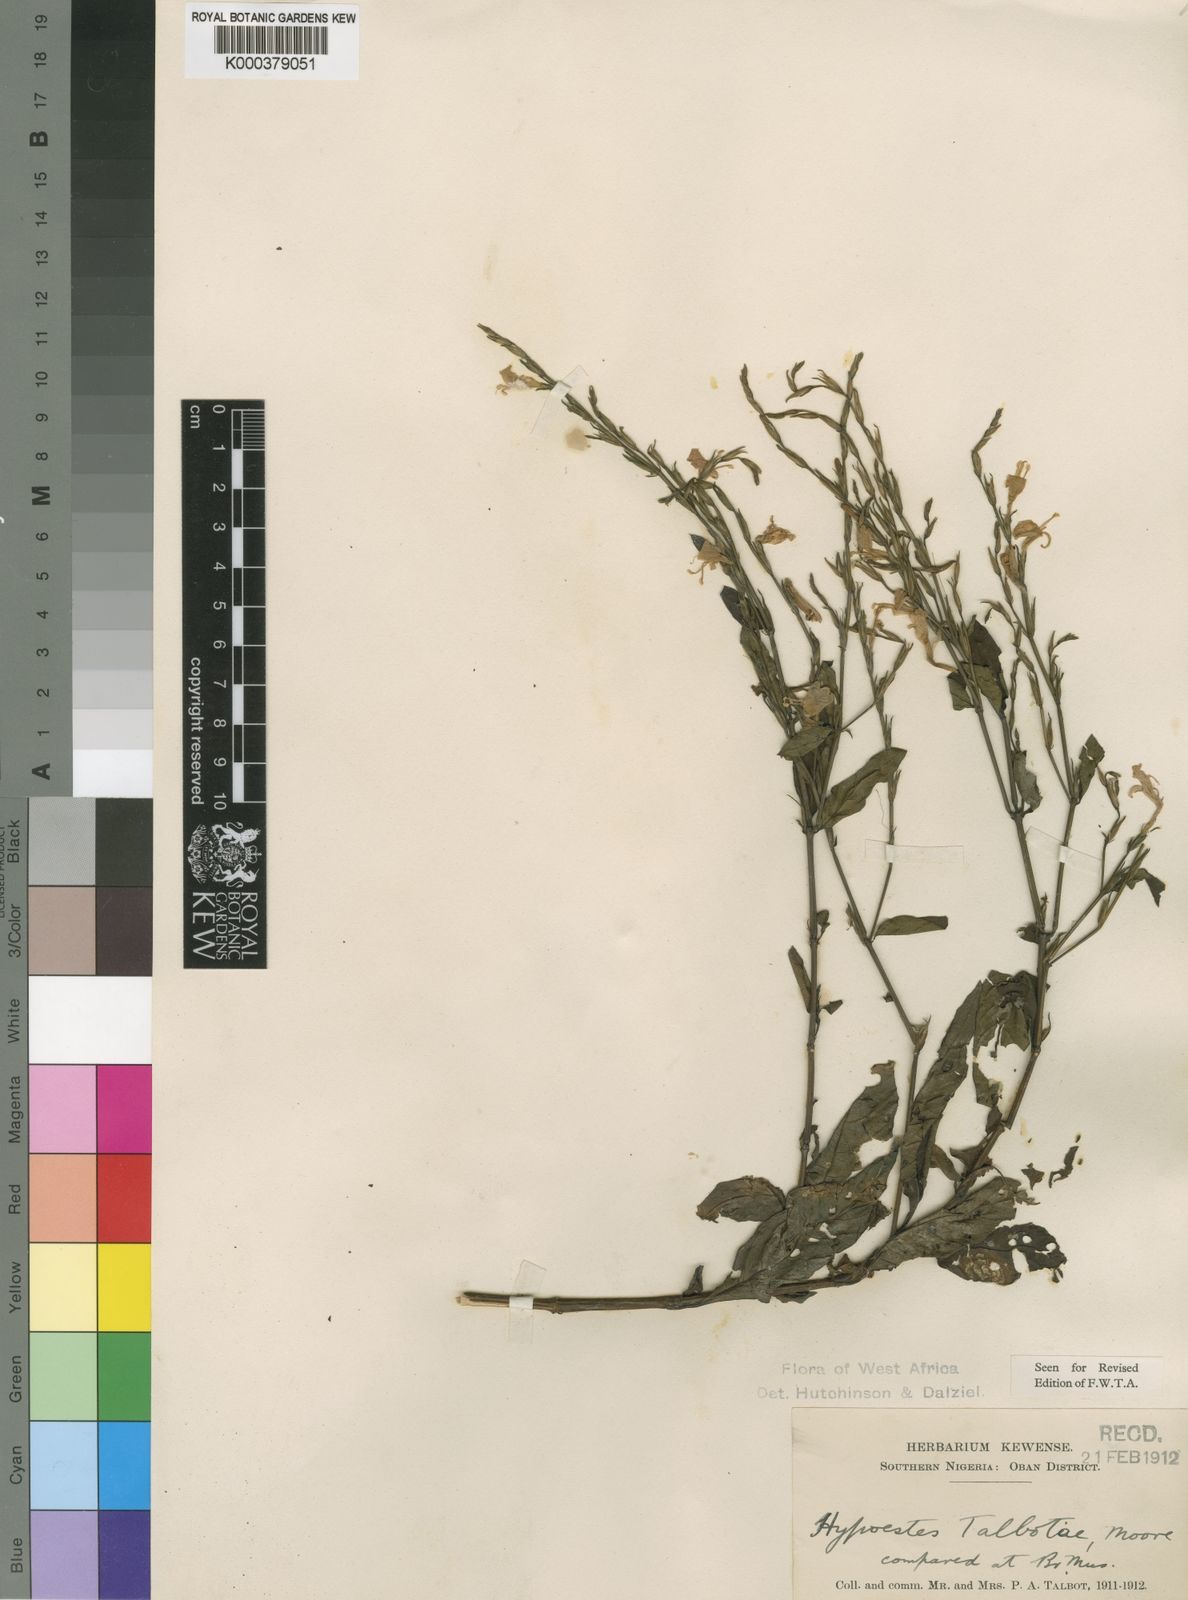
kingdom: Plantae
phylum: Tracheophyta
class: Magnoliopsida
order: Lamiales
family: Acanthaceae
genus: Hypoestes
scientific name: Hypoestes rosea
